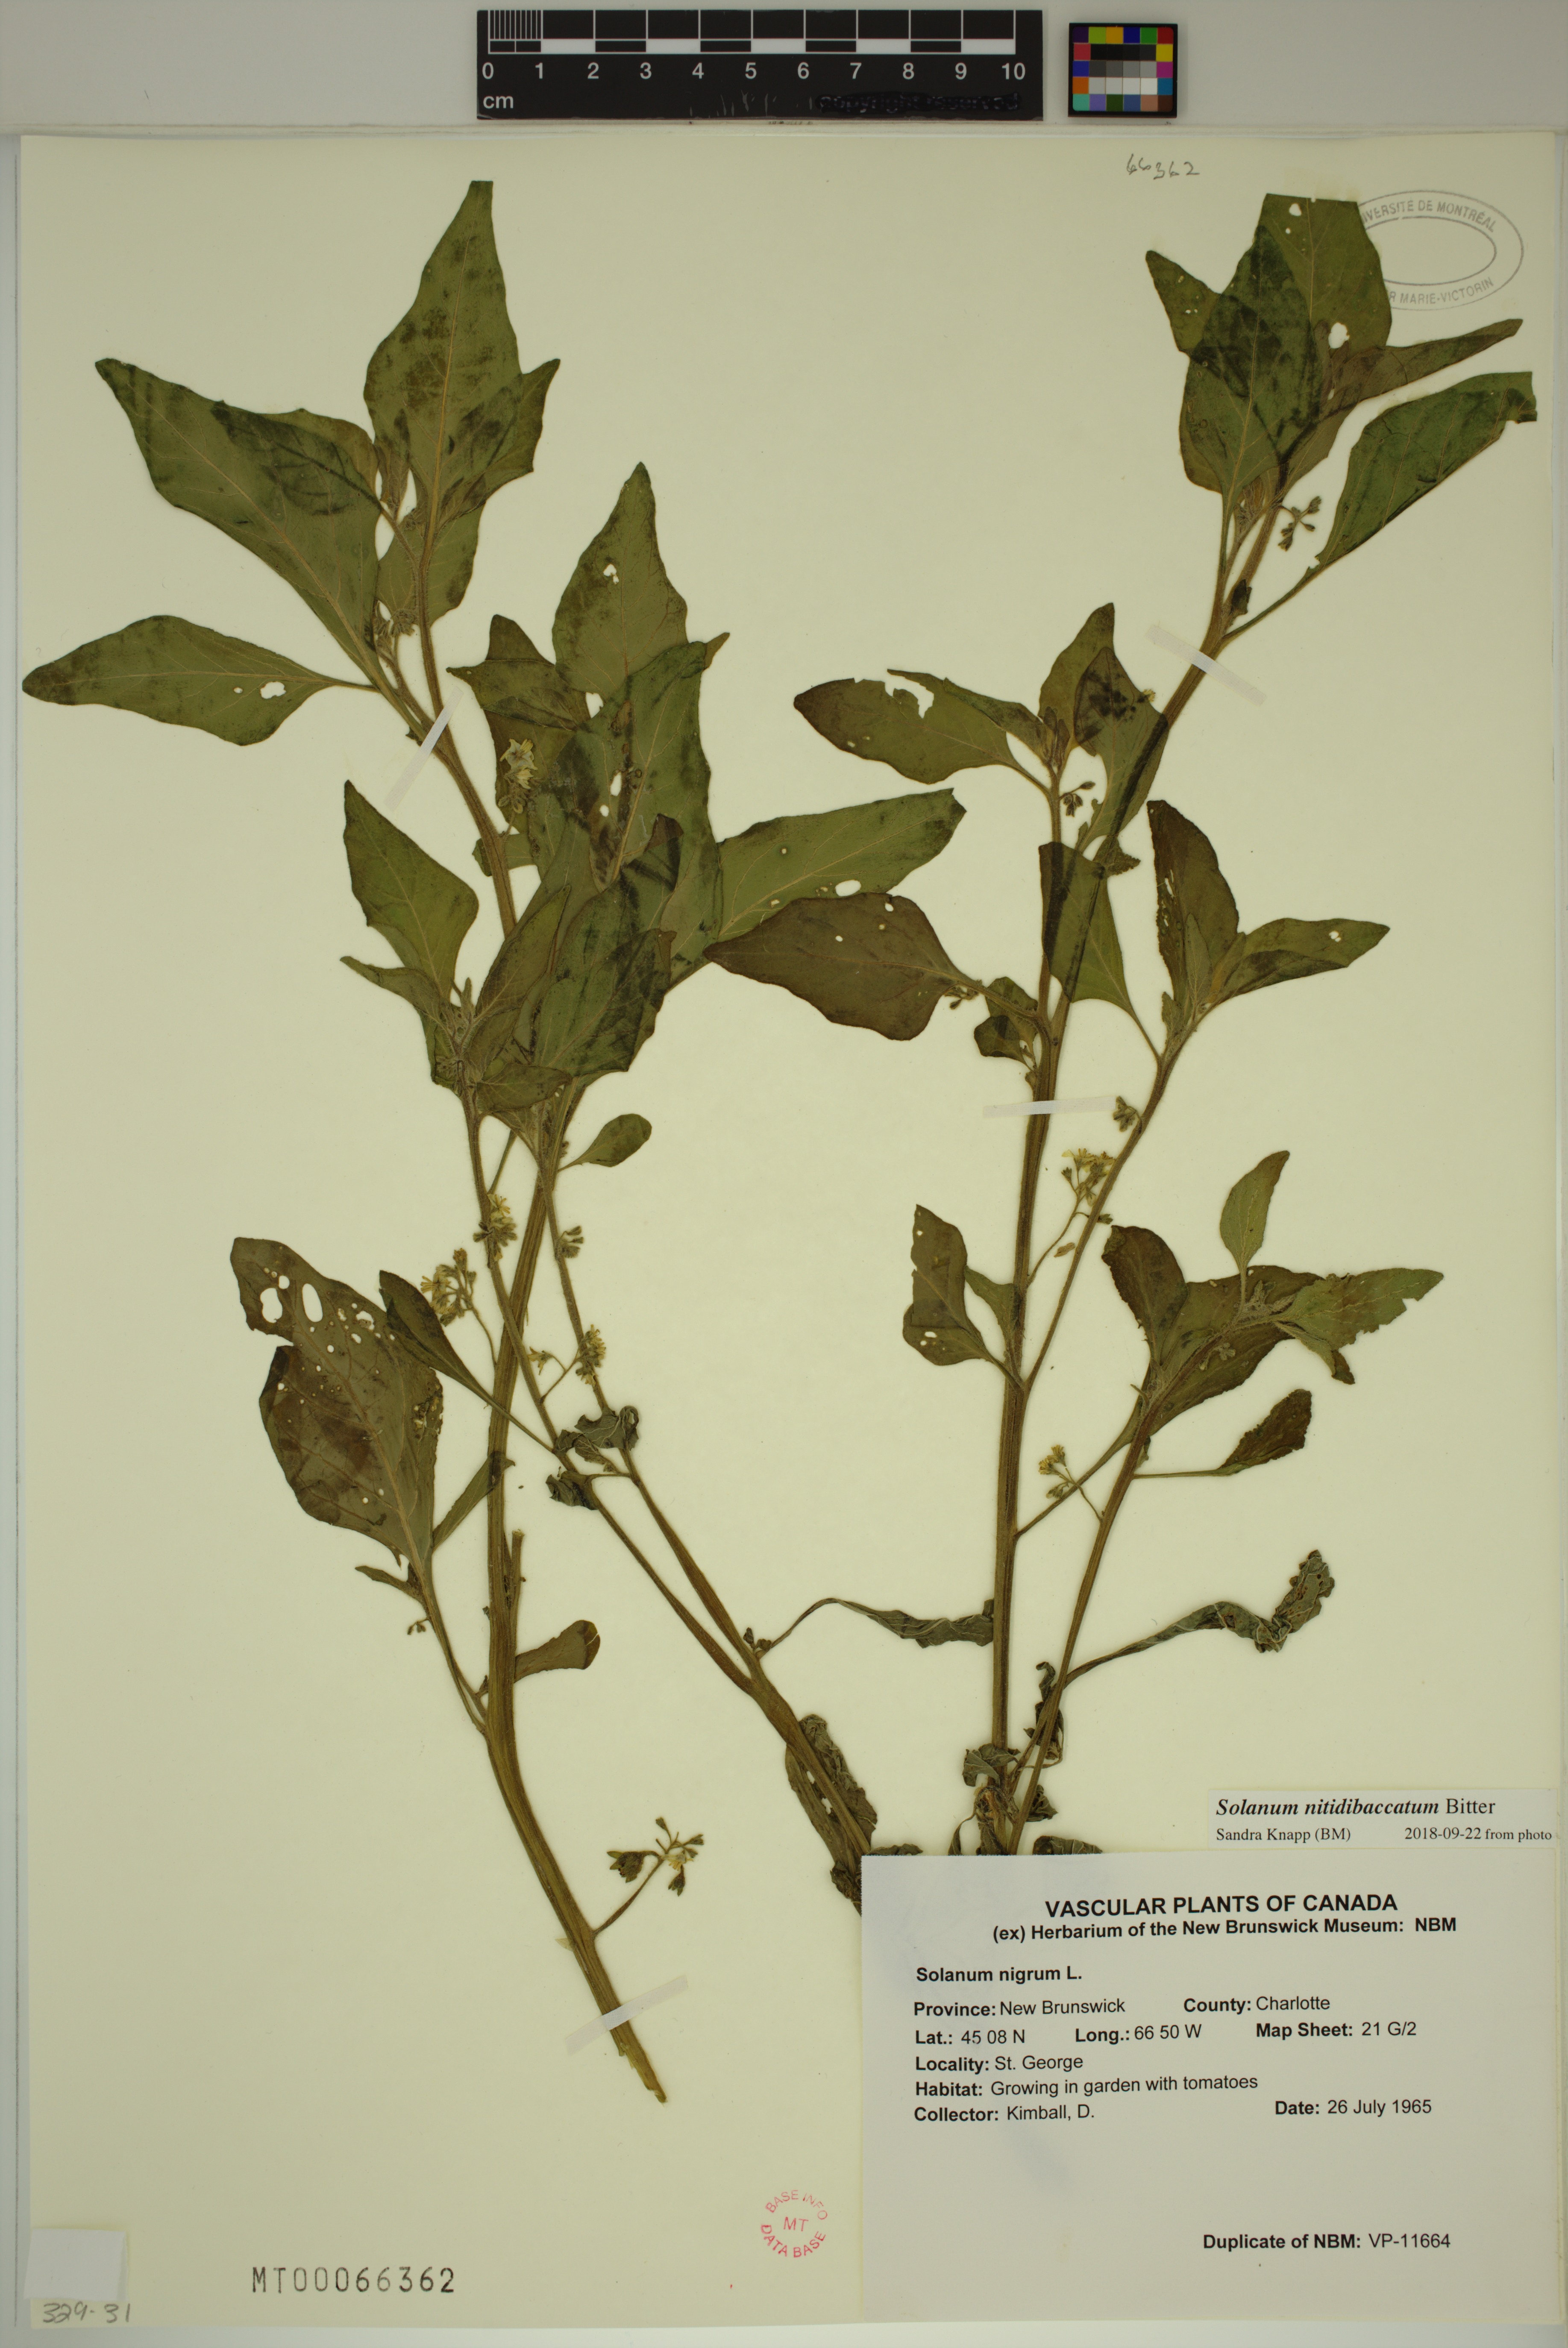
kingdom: Plantae
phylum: Tracheophyta
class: Magnoliopsida
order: Solanales
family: Solanaceae
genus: Solanum
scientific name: Solanum nitidibaccatum
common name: Hairy nightshade
